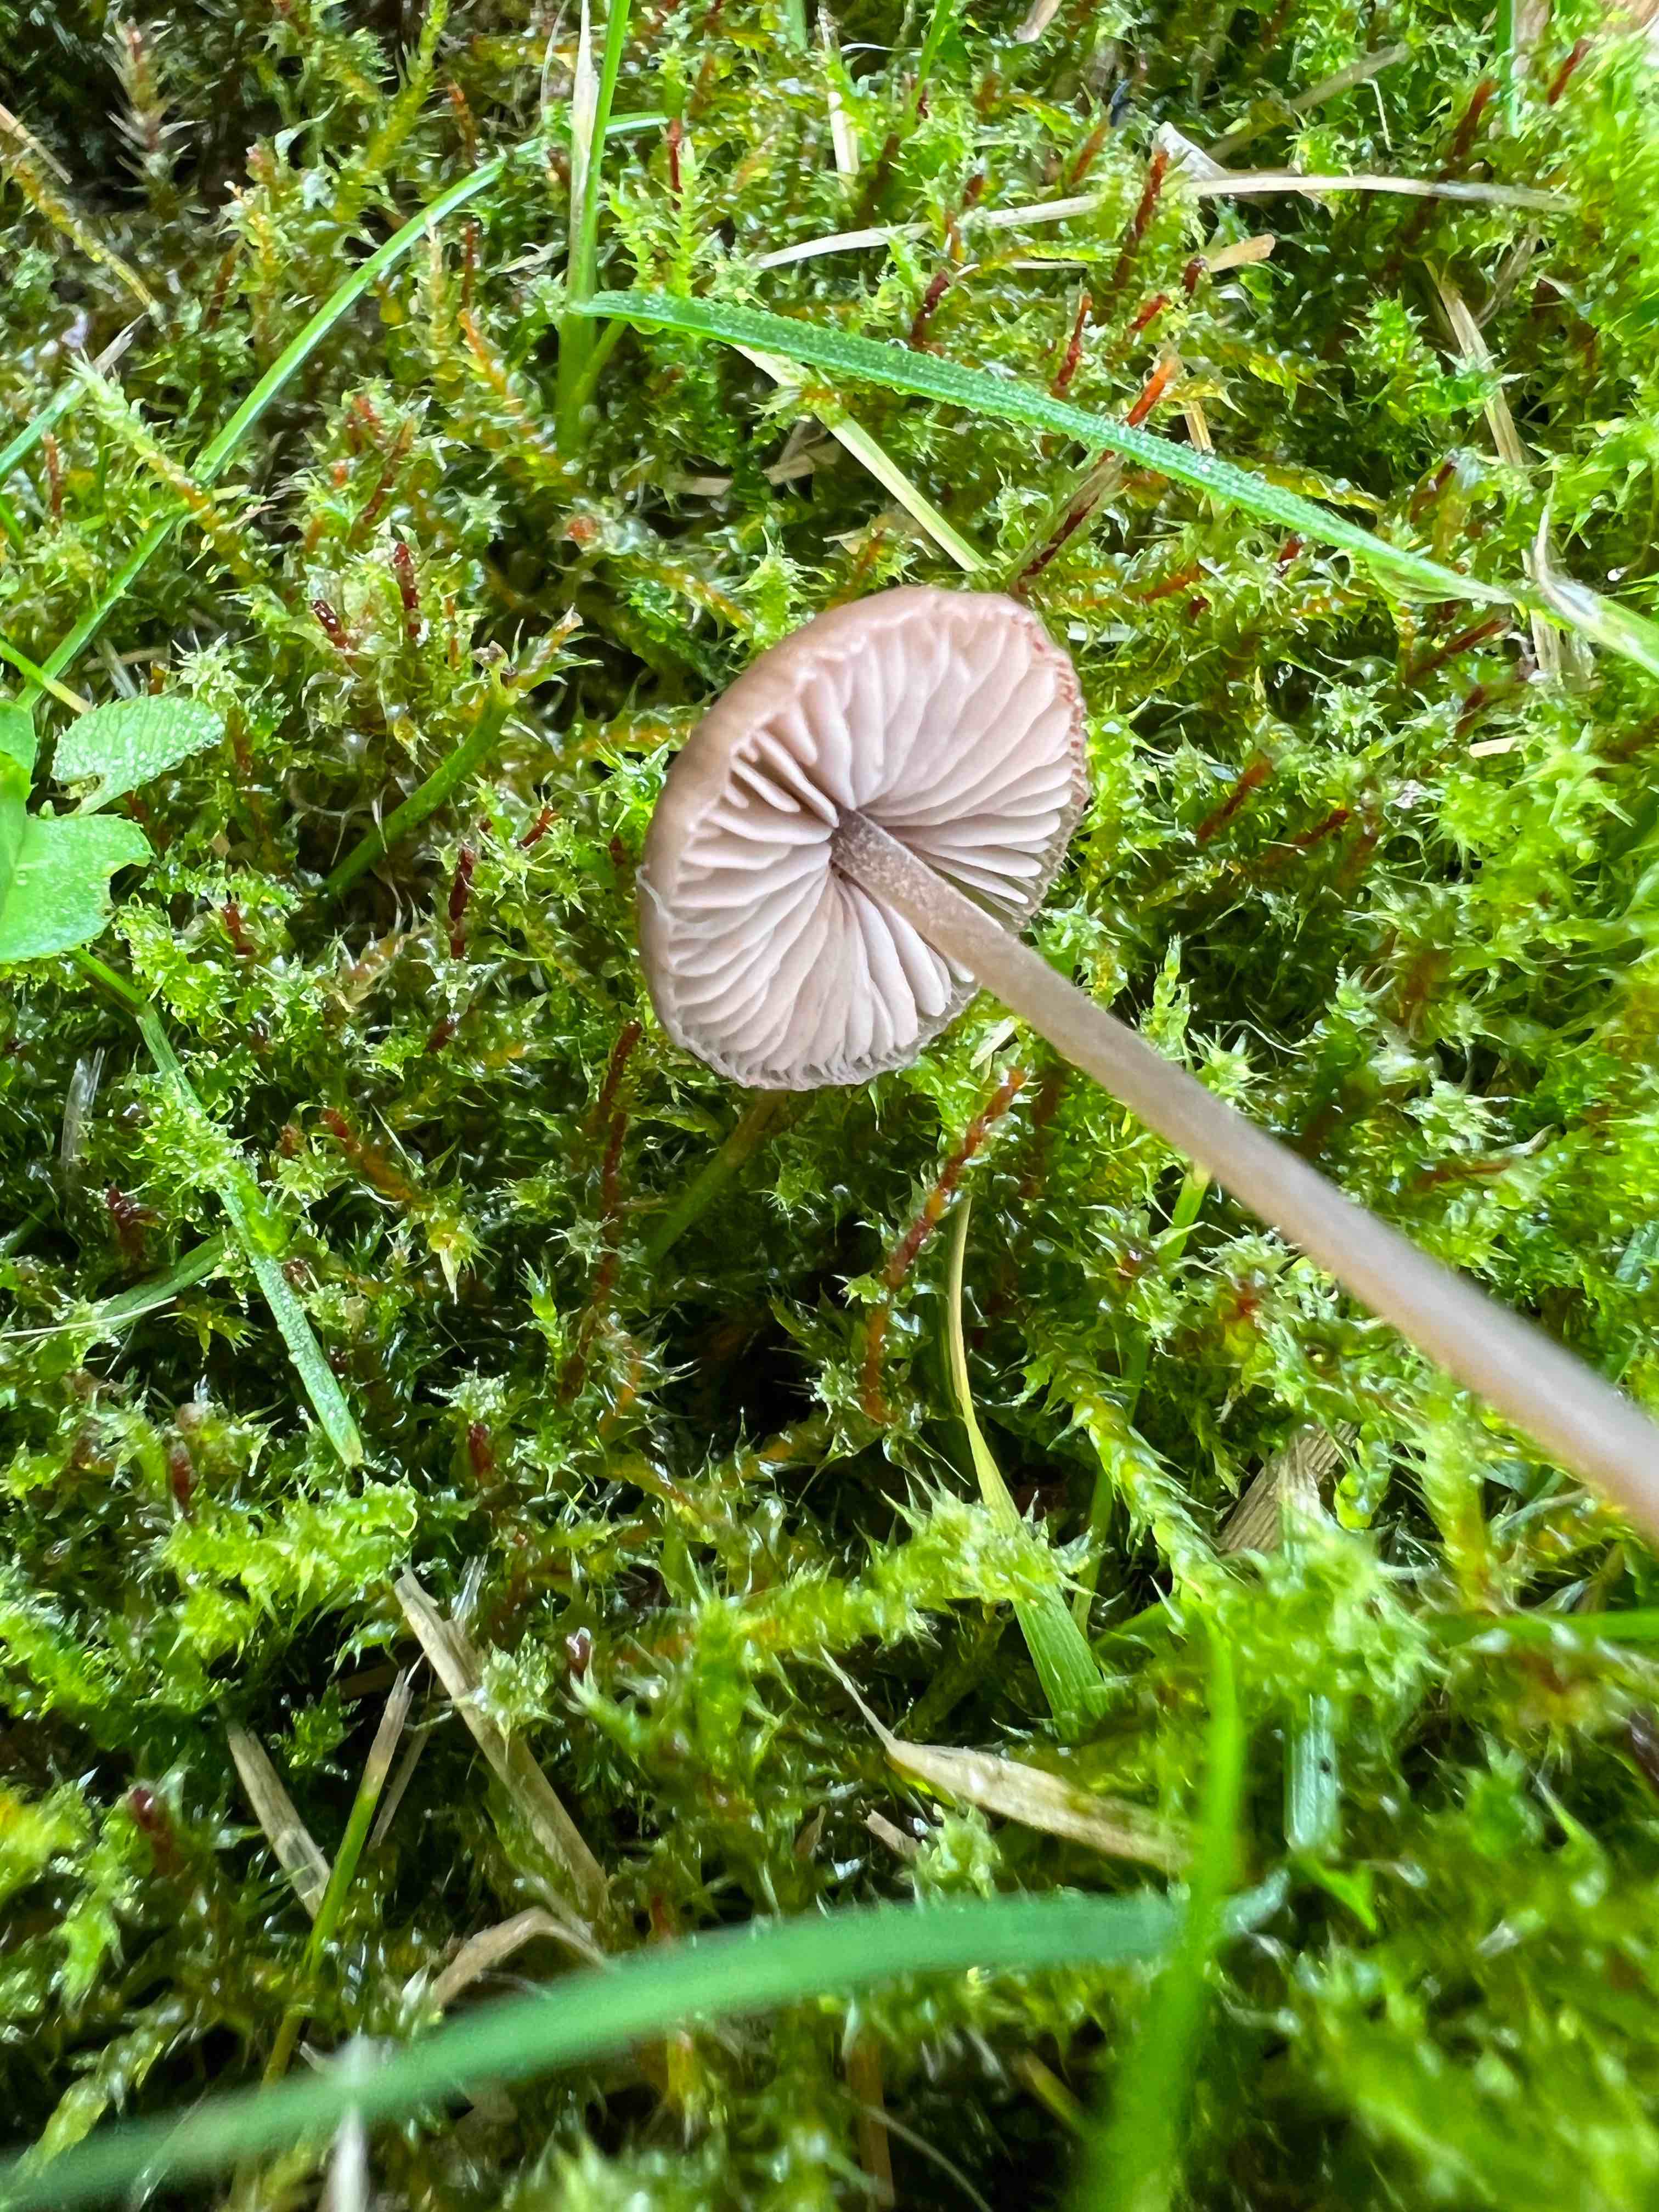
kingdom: Fungi
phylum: Basidiomycota
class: Agaricomycetes
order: Agaricales
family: Entolomataceae
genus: Entoloma
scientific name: Entoloma
